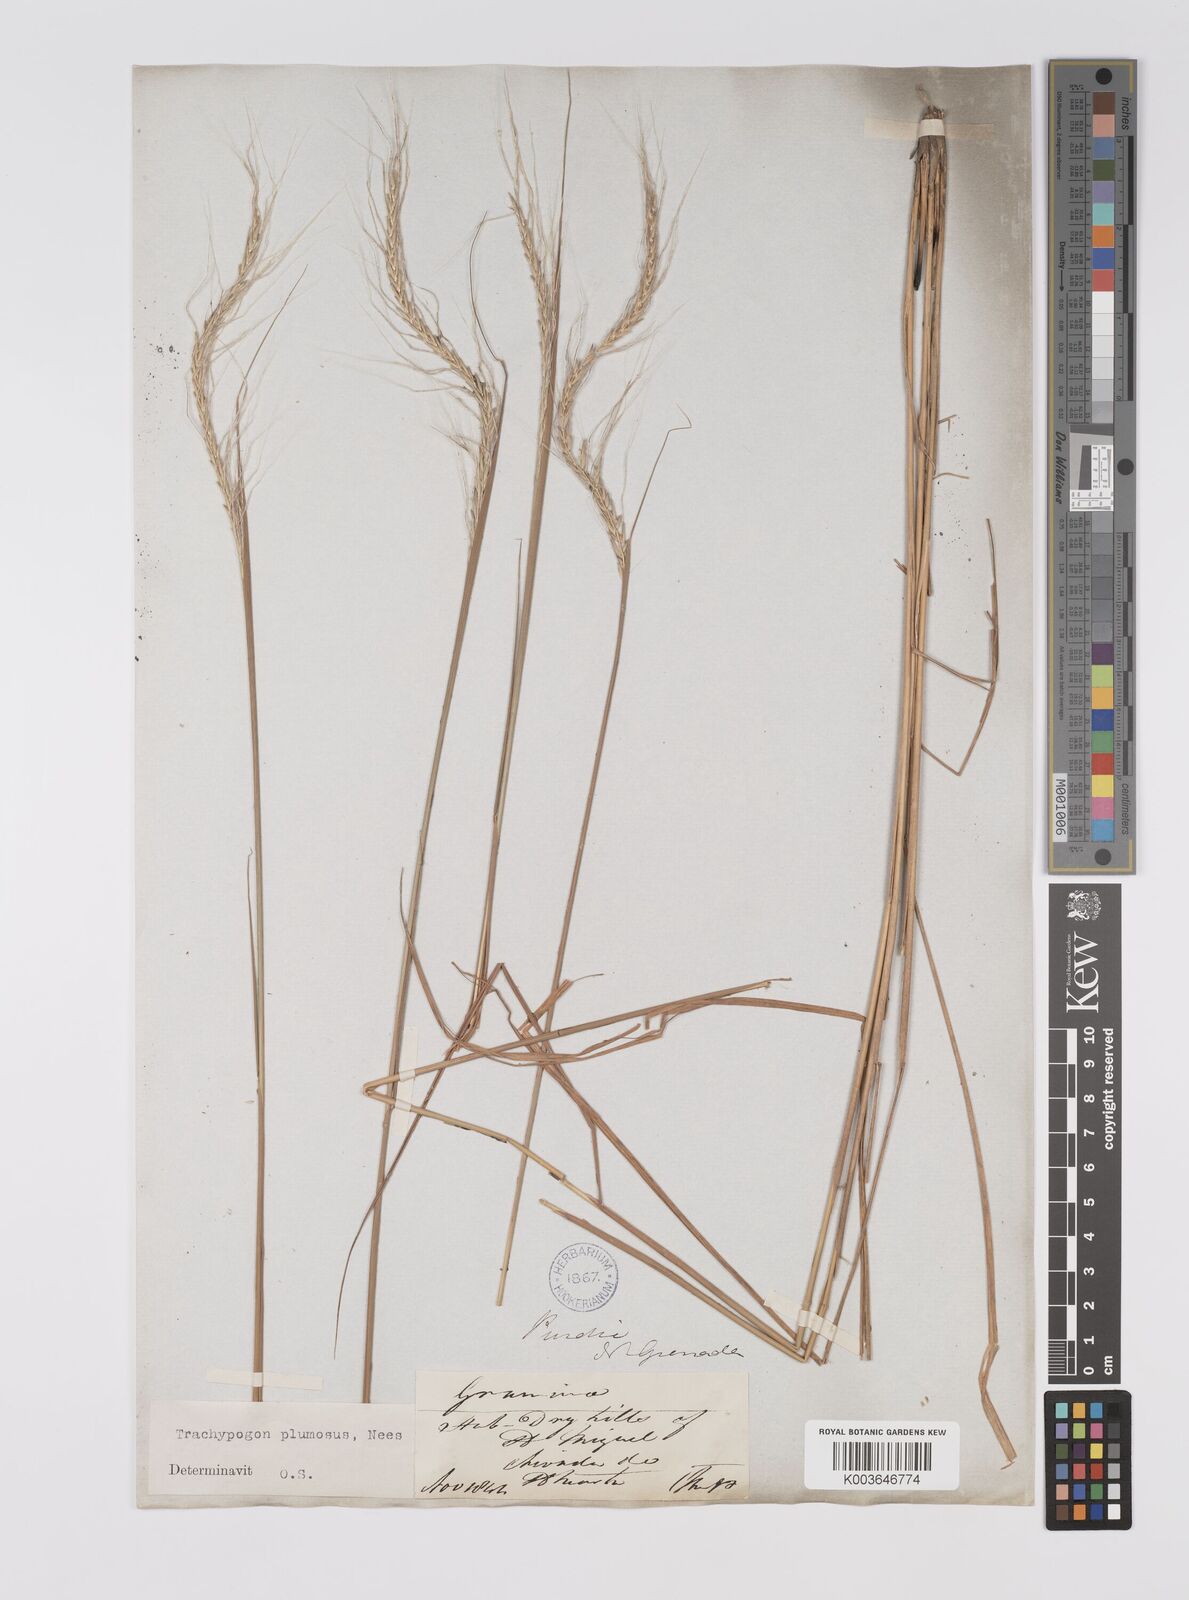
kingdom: Plantae
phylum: Tracheophyta
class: Liliopsida
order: Poales
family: Poaceae
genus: Trachypogon
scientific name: Trachypogon spicatus
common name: Crinkle-awn
